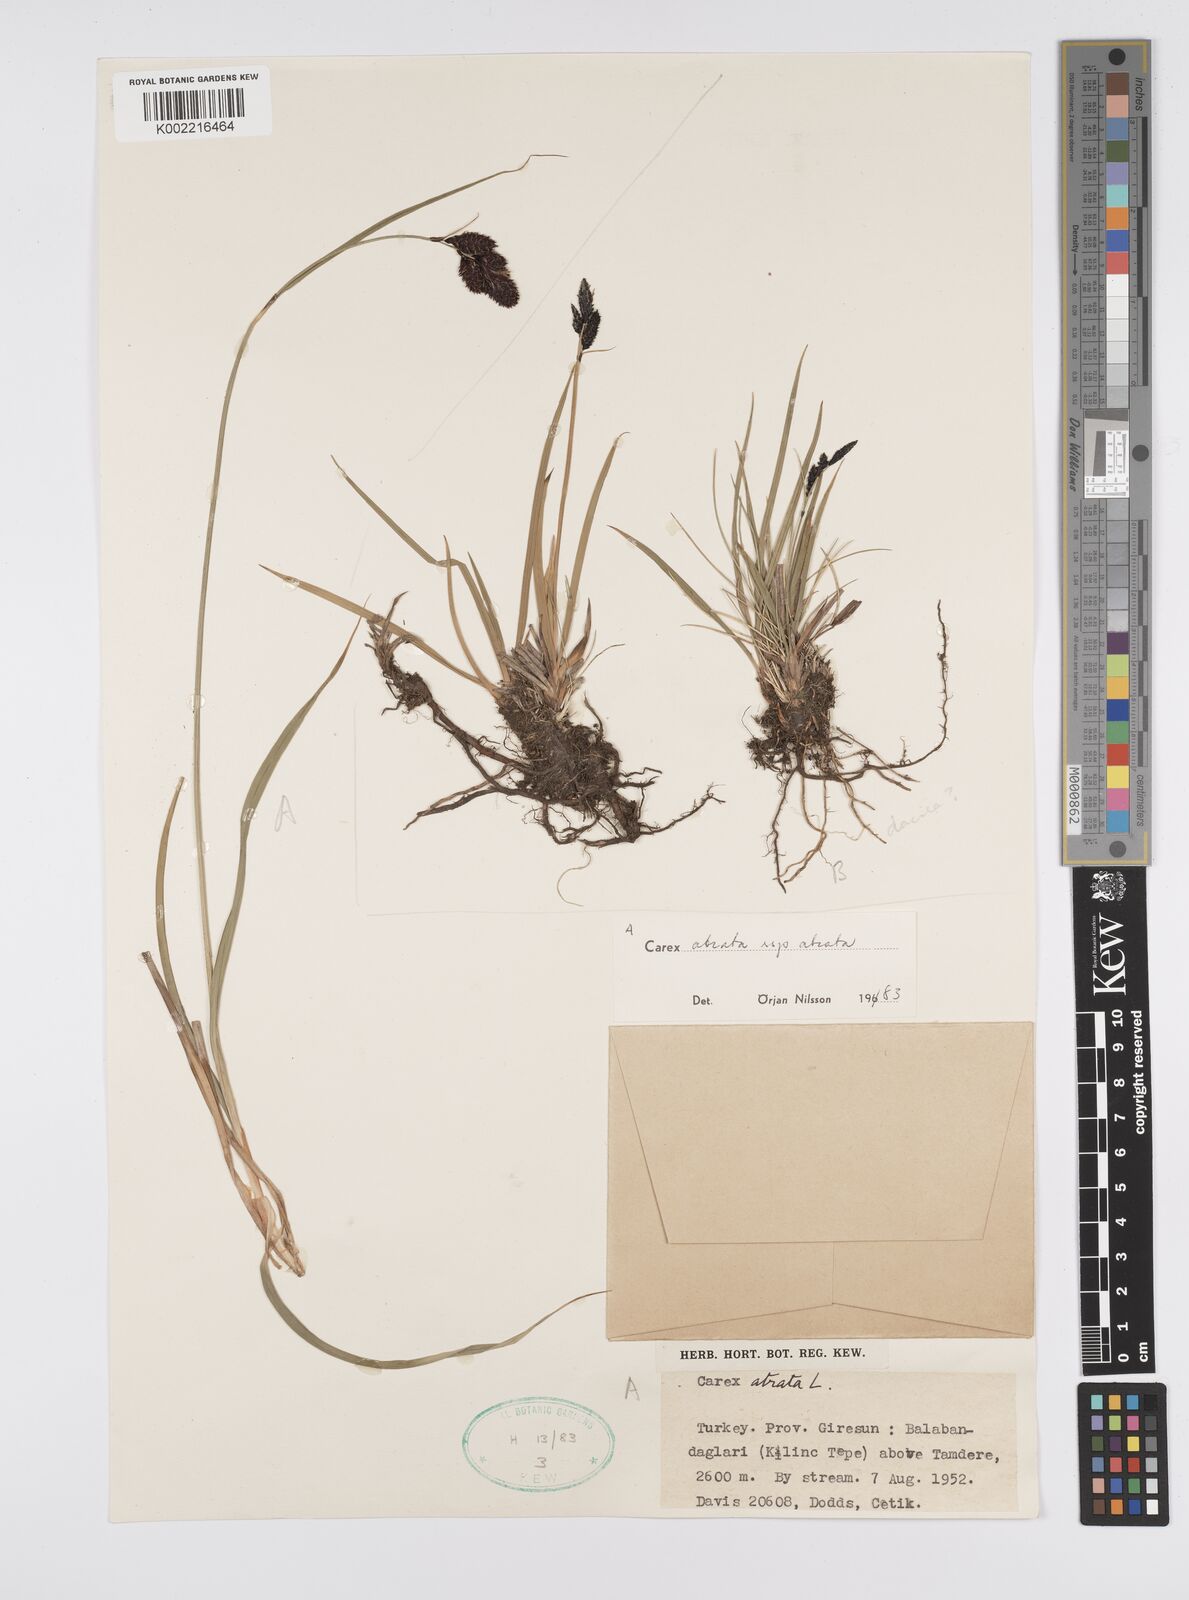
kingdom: Plantae
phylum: Tracheophyta
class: Liliopsida
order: Poales
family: Cyperaceae
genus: Carex
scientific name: Carex atrata
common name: Black alpine sedge
